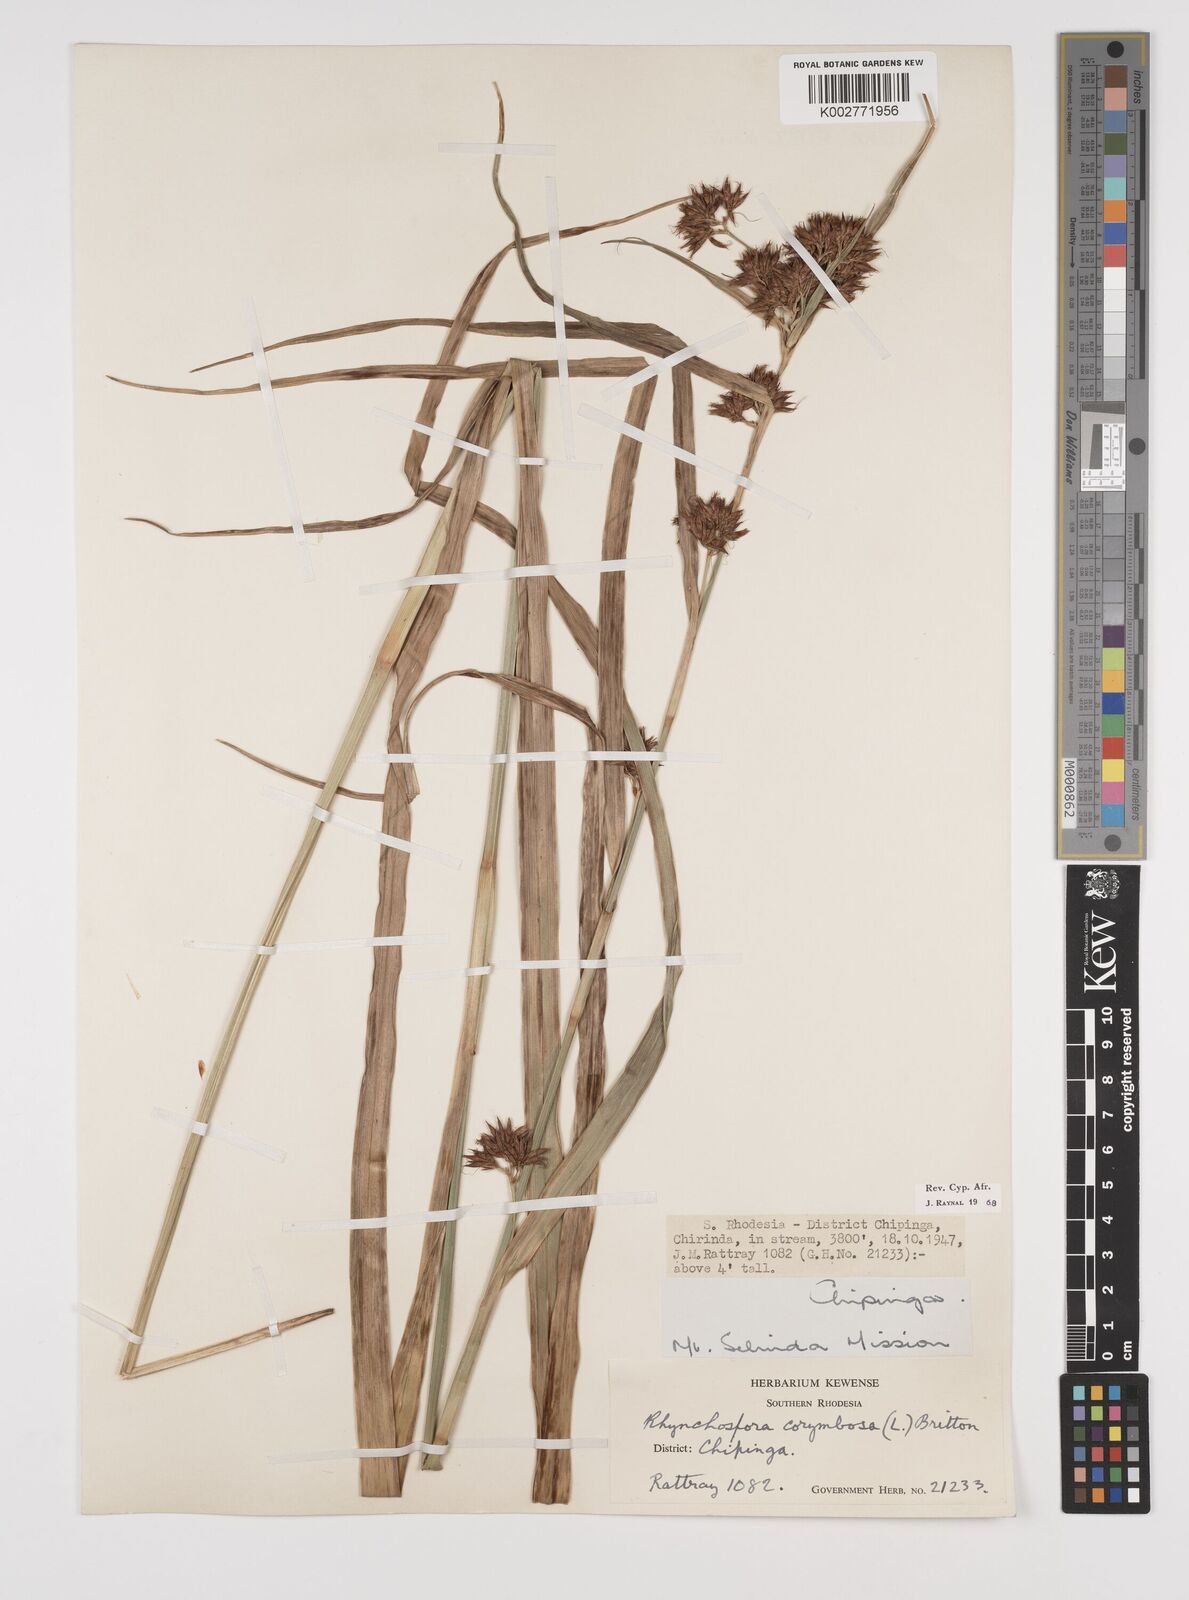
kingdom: Plantae
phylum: Tracheophyta
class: Liliopsida
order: Poales
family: Cyperaceae
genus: Rhynchospora
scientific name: Rhynchospora corymbosa
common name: Golden beak sedge
